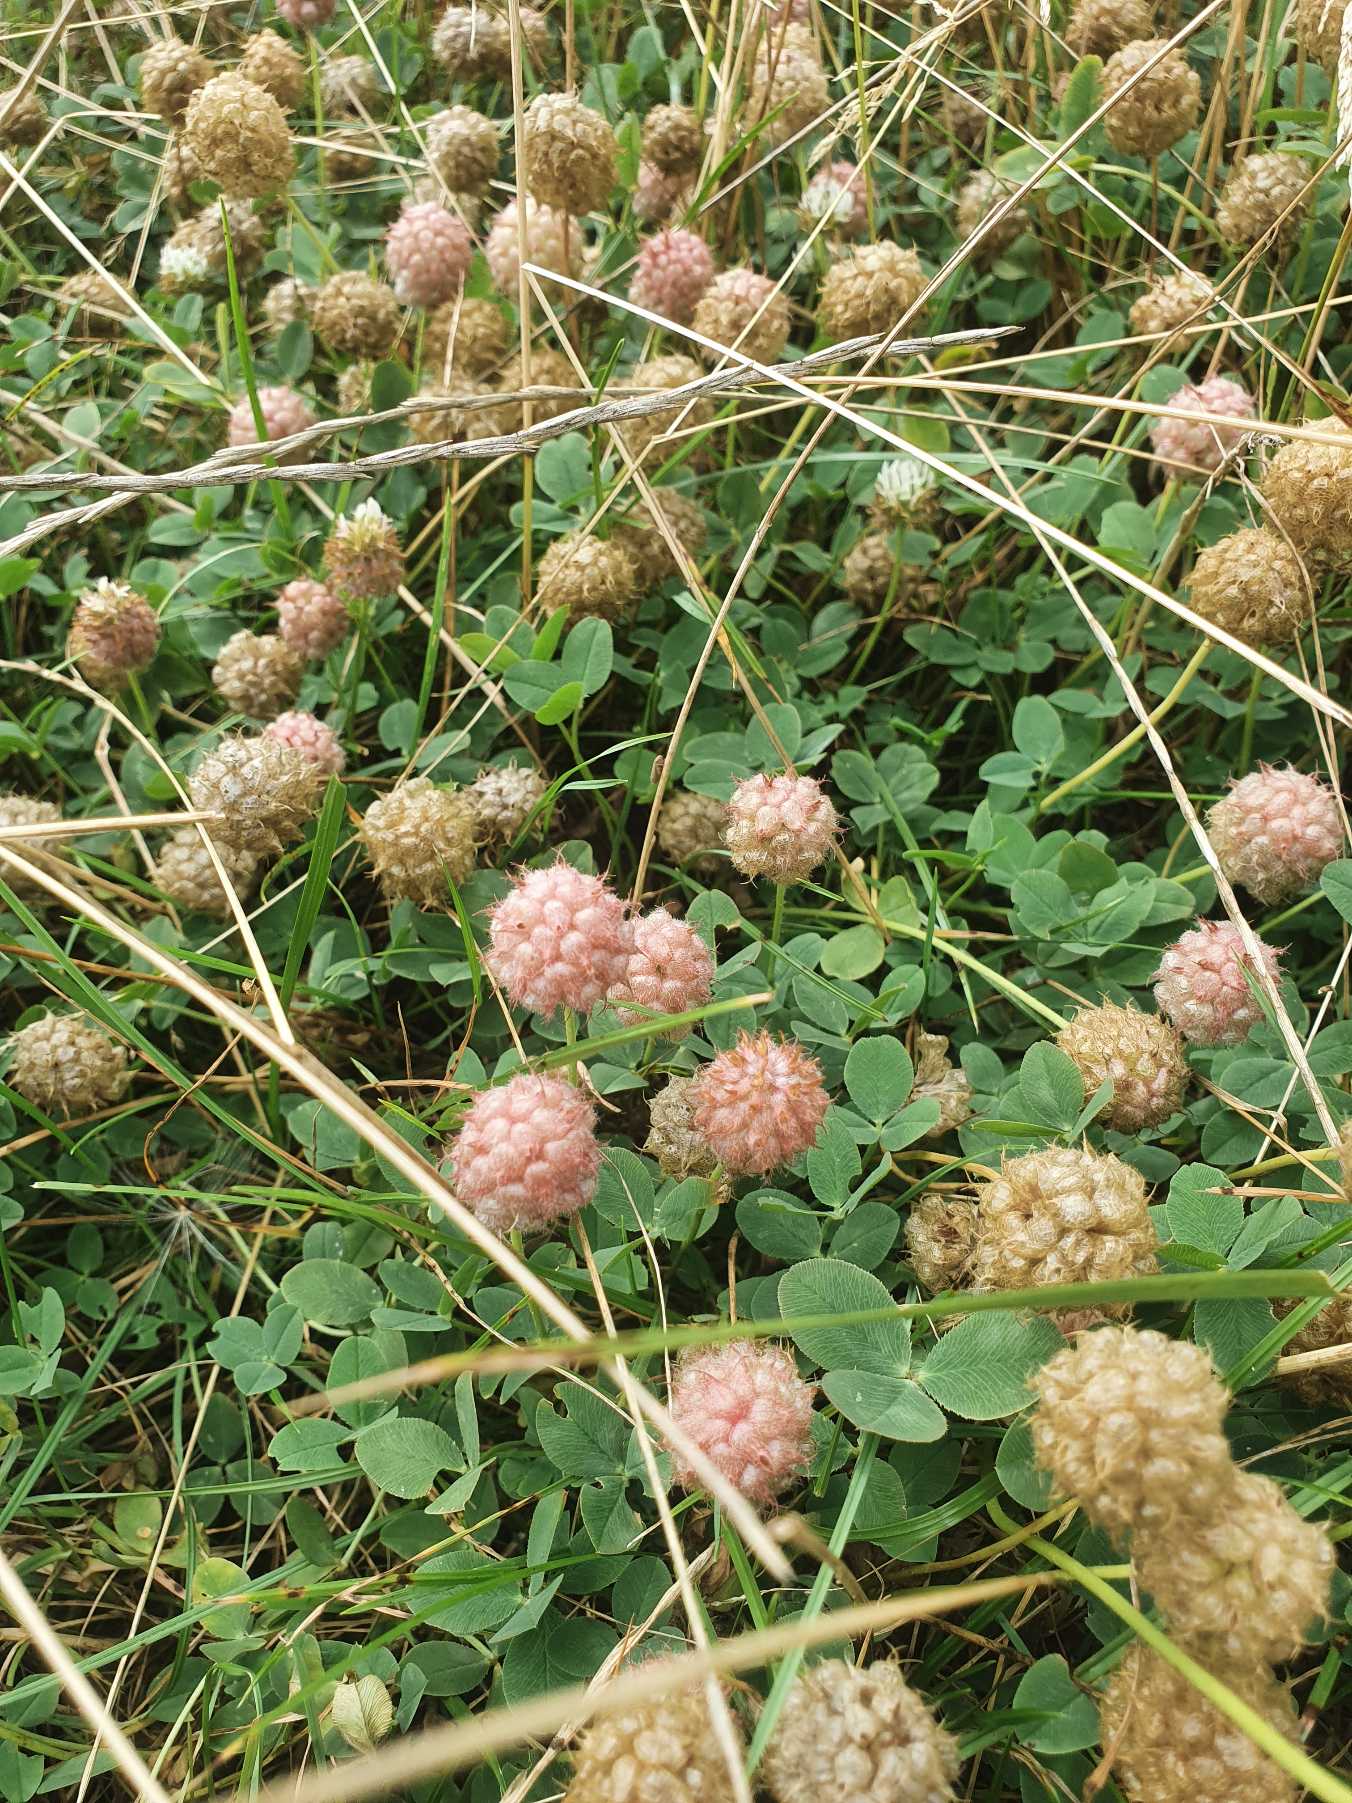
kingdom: Plantae
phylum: Tracheophyta
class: Magnoliopsida
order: Fabales
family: Fabaceae
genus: Trifolium
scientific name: Trifolium fragiferum
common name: Jordbær-kløver
